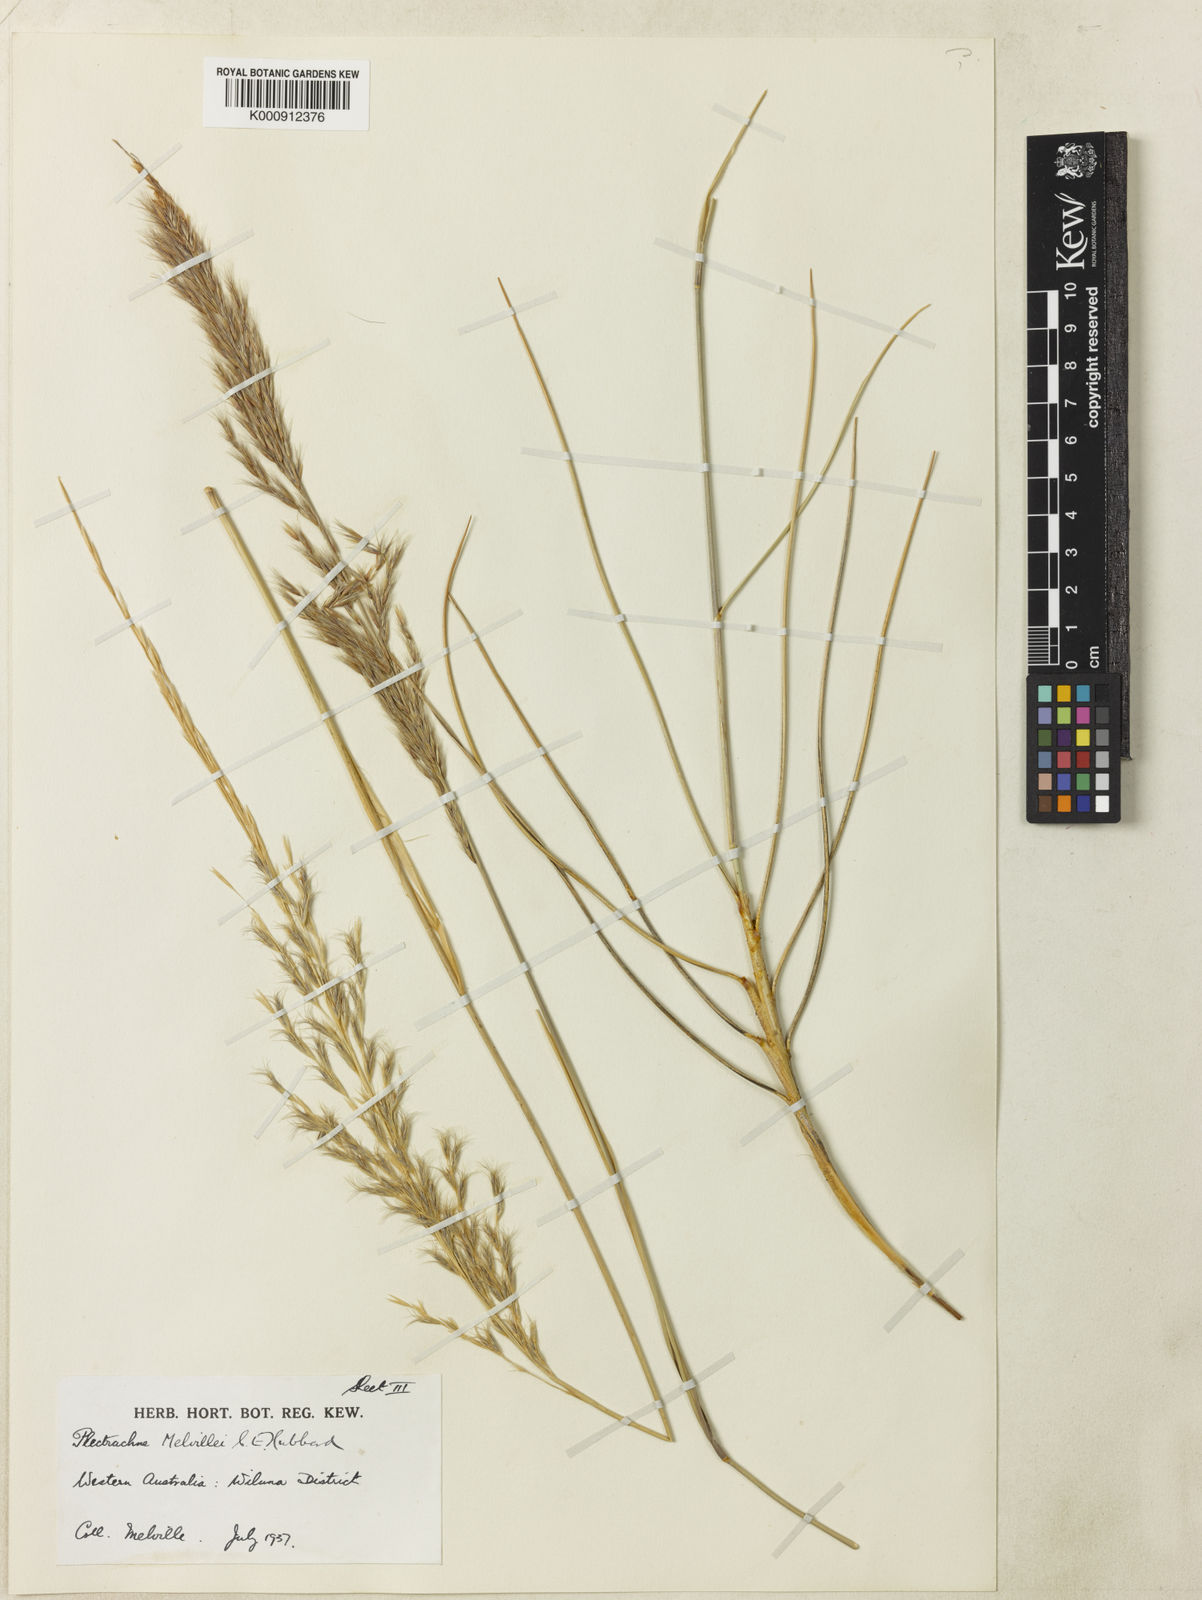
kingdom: Plantae
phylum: Tracheophyta
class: Liliopsida
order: Poales
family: Poaceae
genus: Triodia
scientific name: Triodia melvillei
